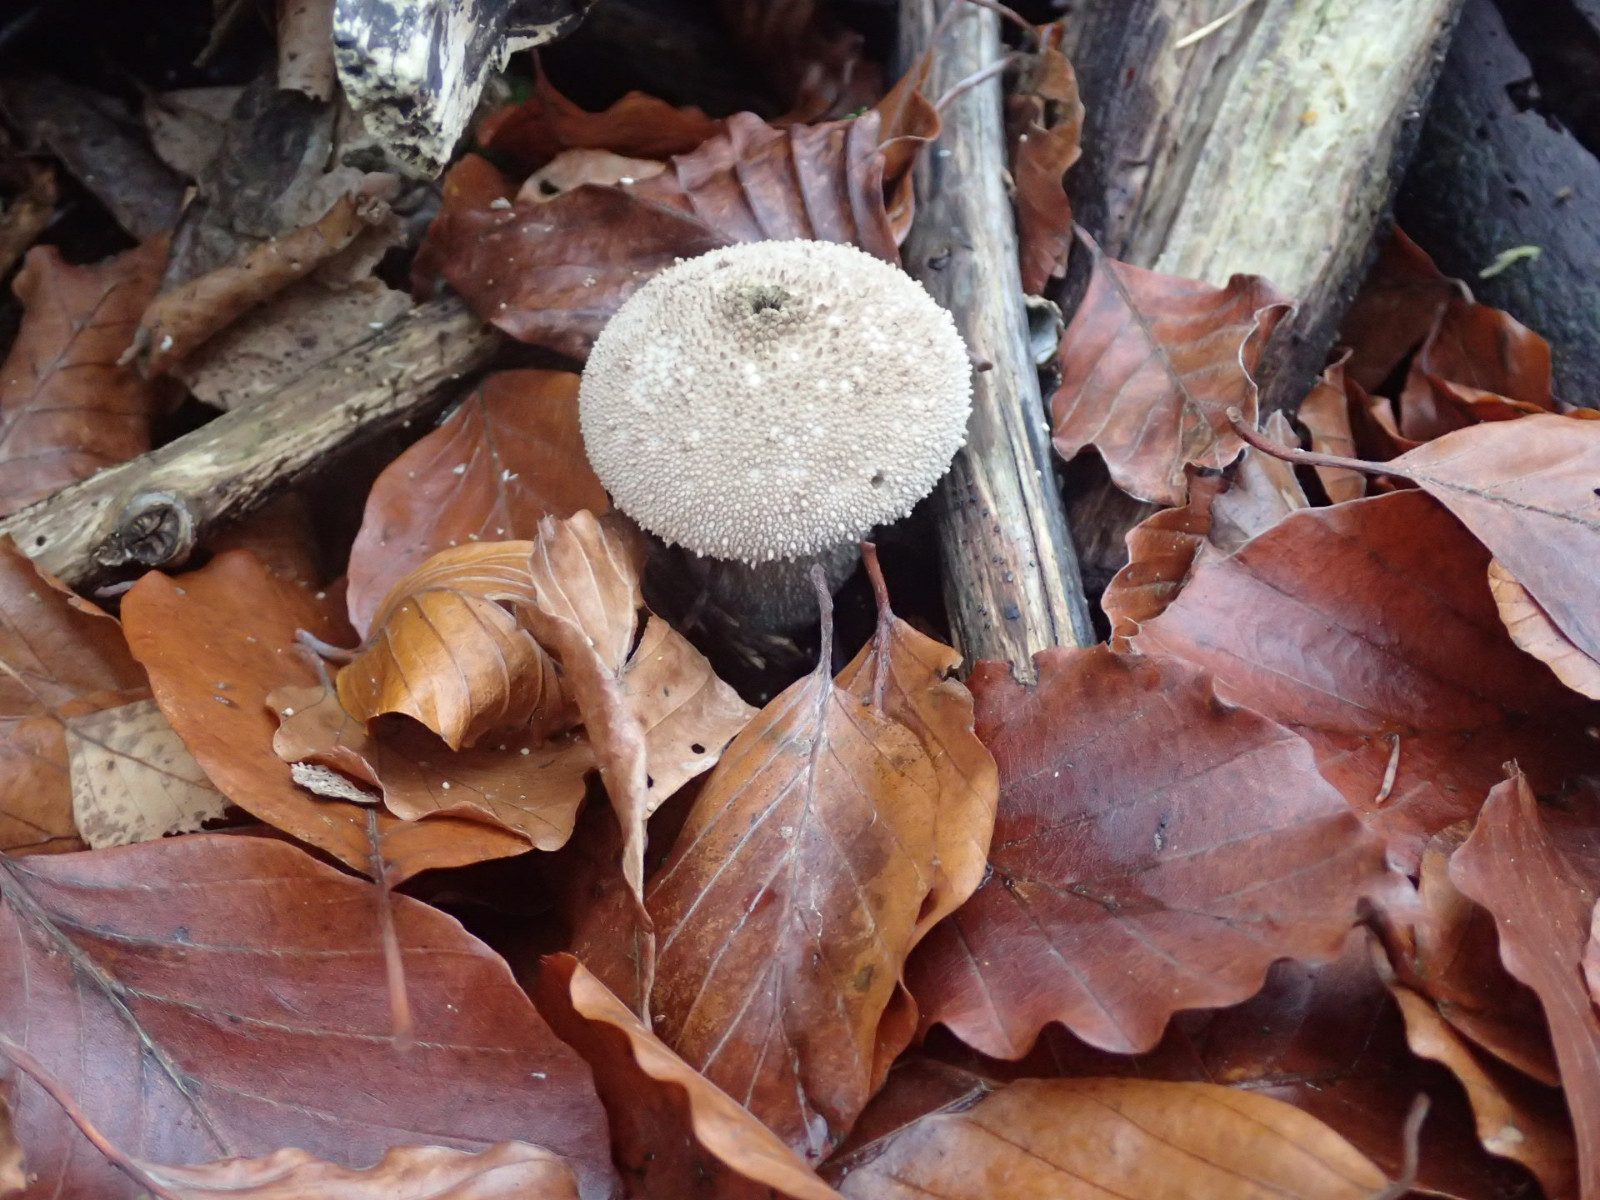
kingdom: Fungi
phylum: Basidiomycota
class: Agaricomycetes
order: Agaricales
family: Lycoperdaceae
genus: Lycoperdon
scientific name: Lycoperdon perlatum
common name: krystal-støvbold
